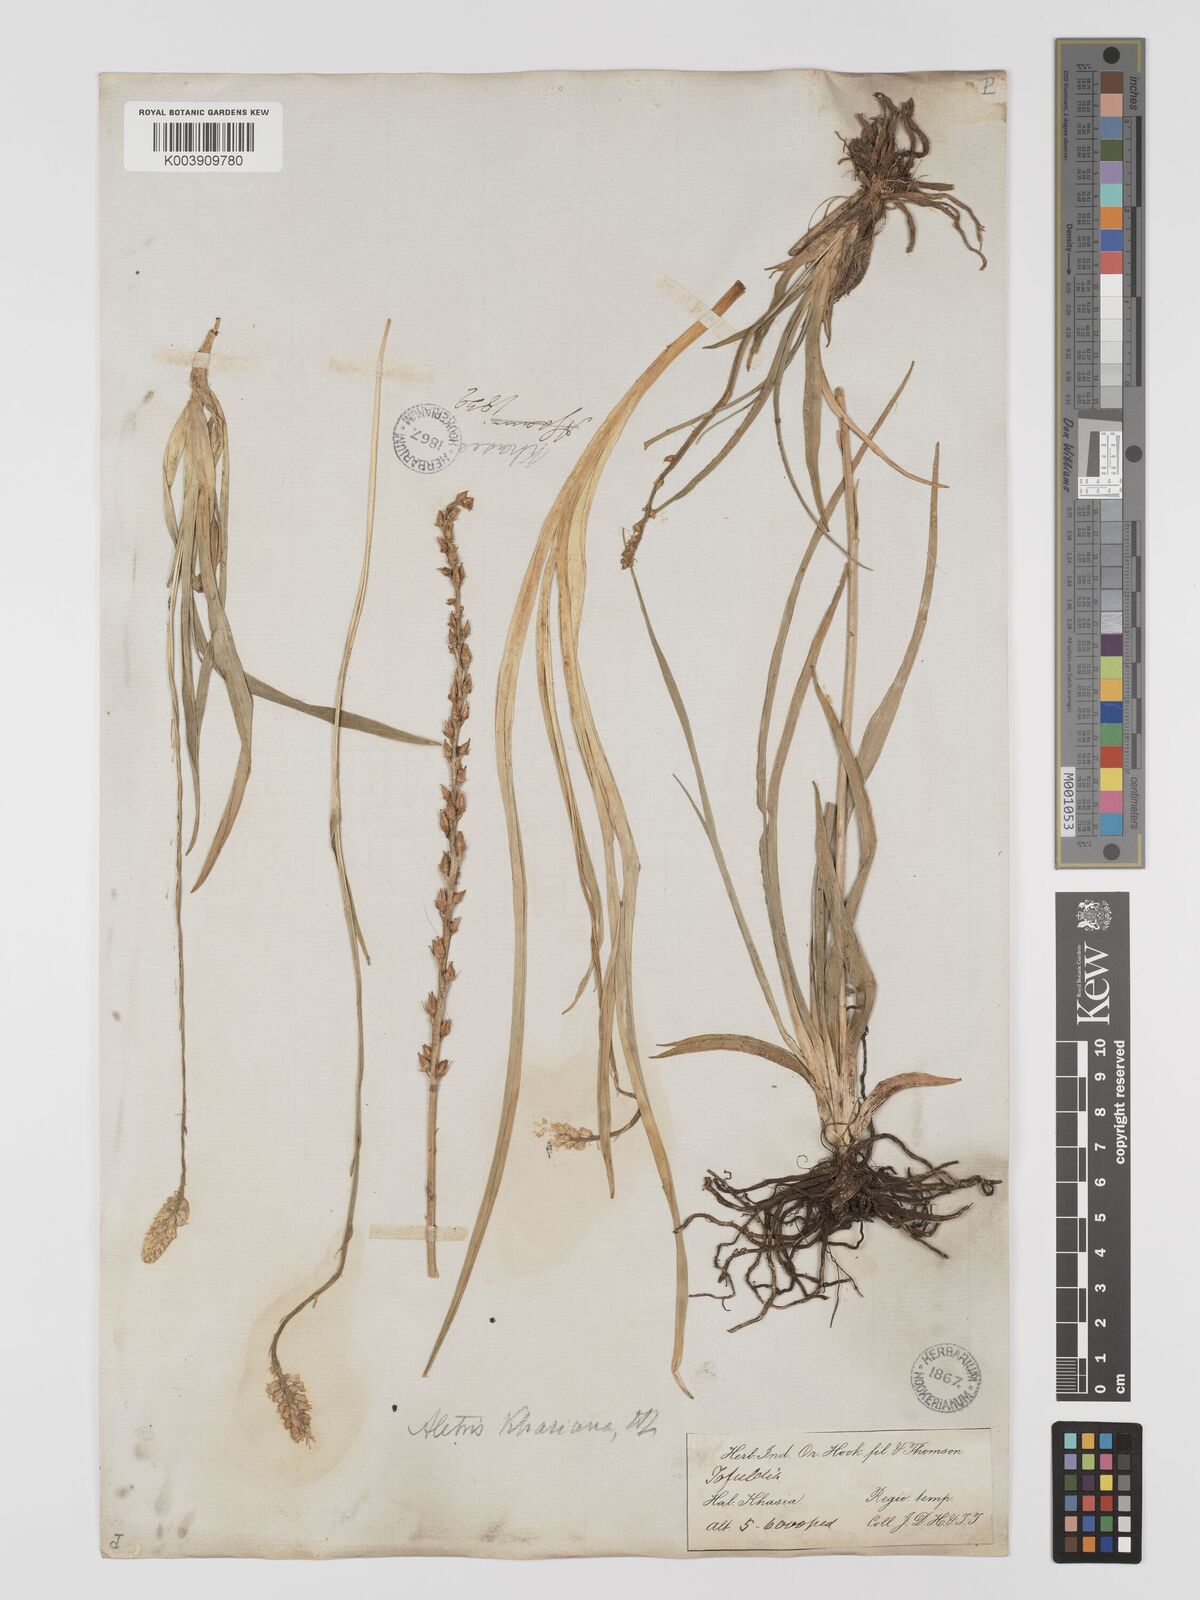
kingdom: Plantae
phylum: Tracheophyta
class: Liliopsida
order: Dioscoreales
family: Nartheciaceae
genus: Aletris
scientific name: Aletris pauciflora
